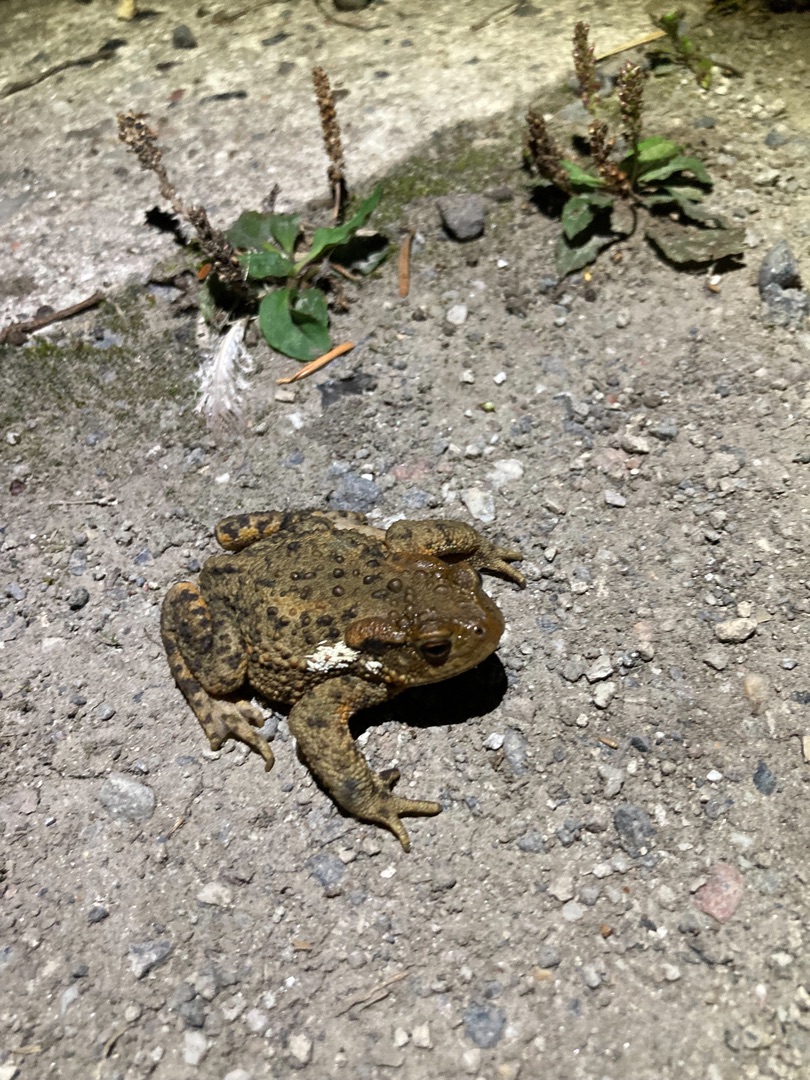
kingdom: Animalia
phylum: Chordata
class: Amphibia
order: Anura
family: Bufonidae
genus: Bufo
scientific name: Bufo bufo
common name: Skrubtudse
